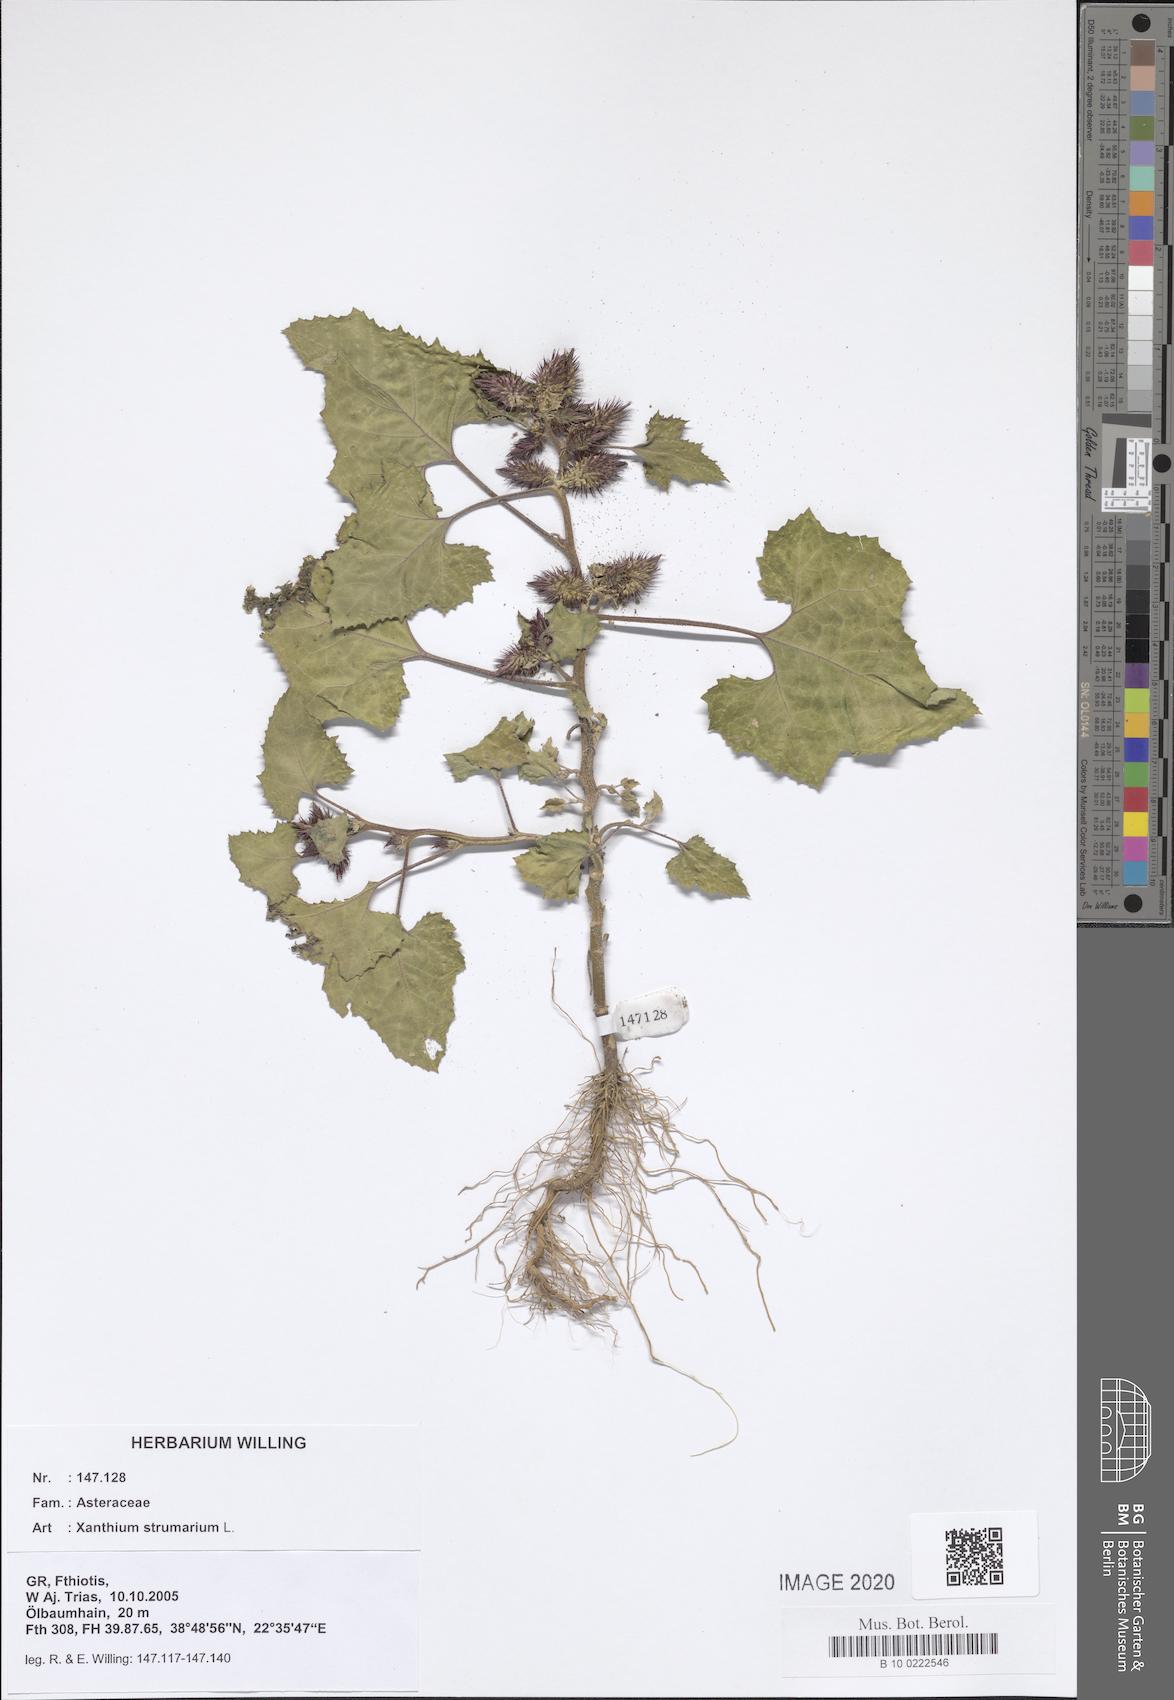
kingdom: Plantae
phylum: Tracheophyta
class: Magnoliopsida
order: Asterales
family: Asteraceae
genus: Xanthium
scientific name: Xanthium strumarium
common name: Rough cocklebur
